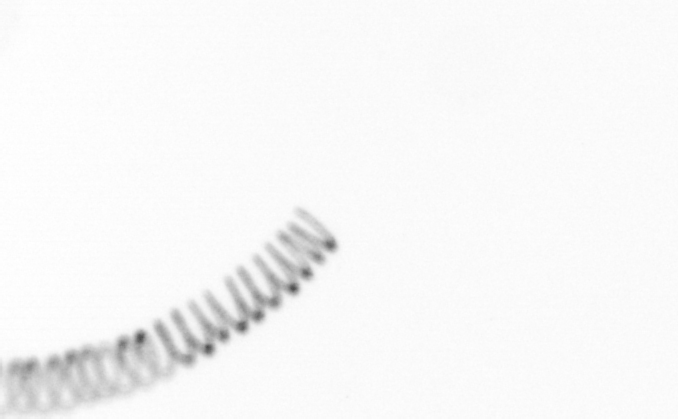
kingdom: Chromista
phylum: Ochrophyta
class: Bacillariophyceae
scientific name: Bacillariophyceae
